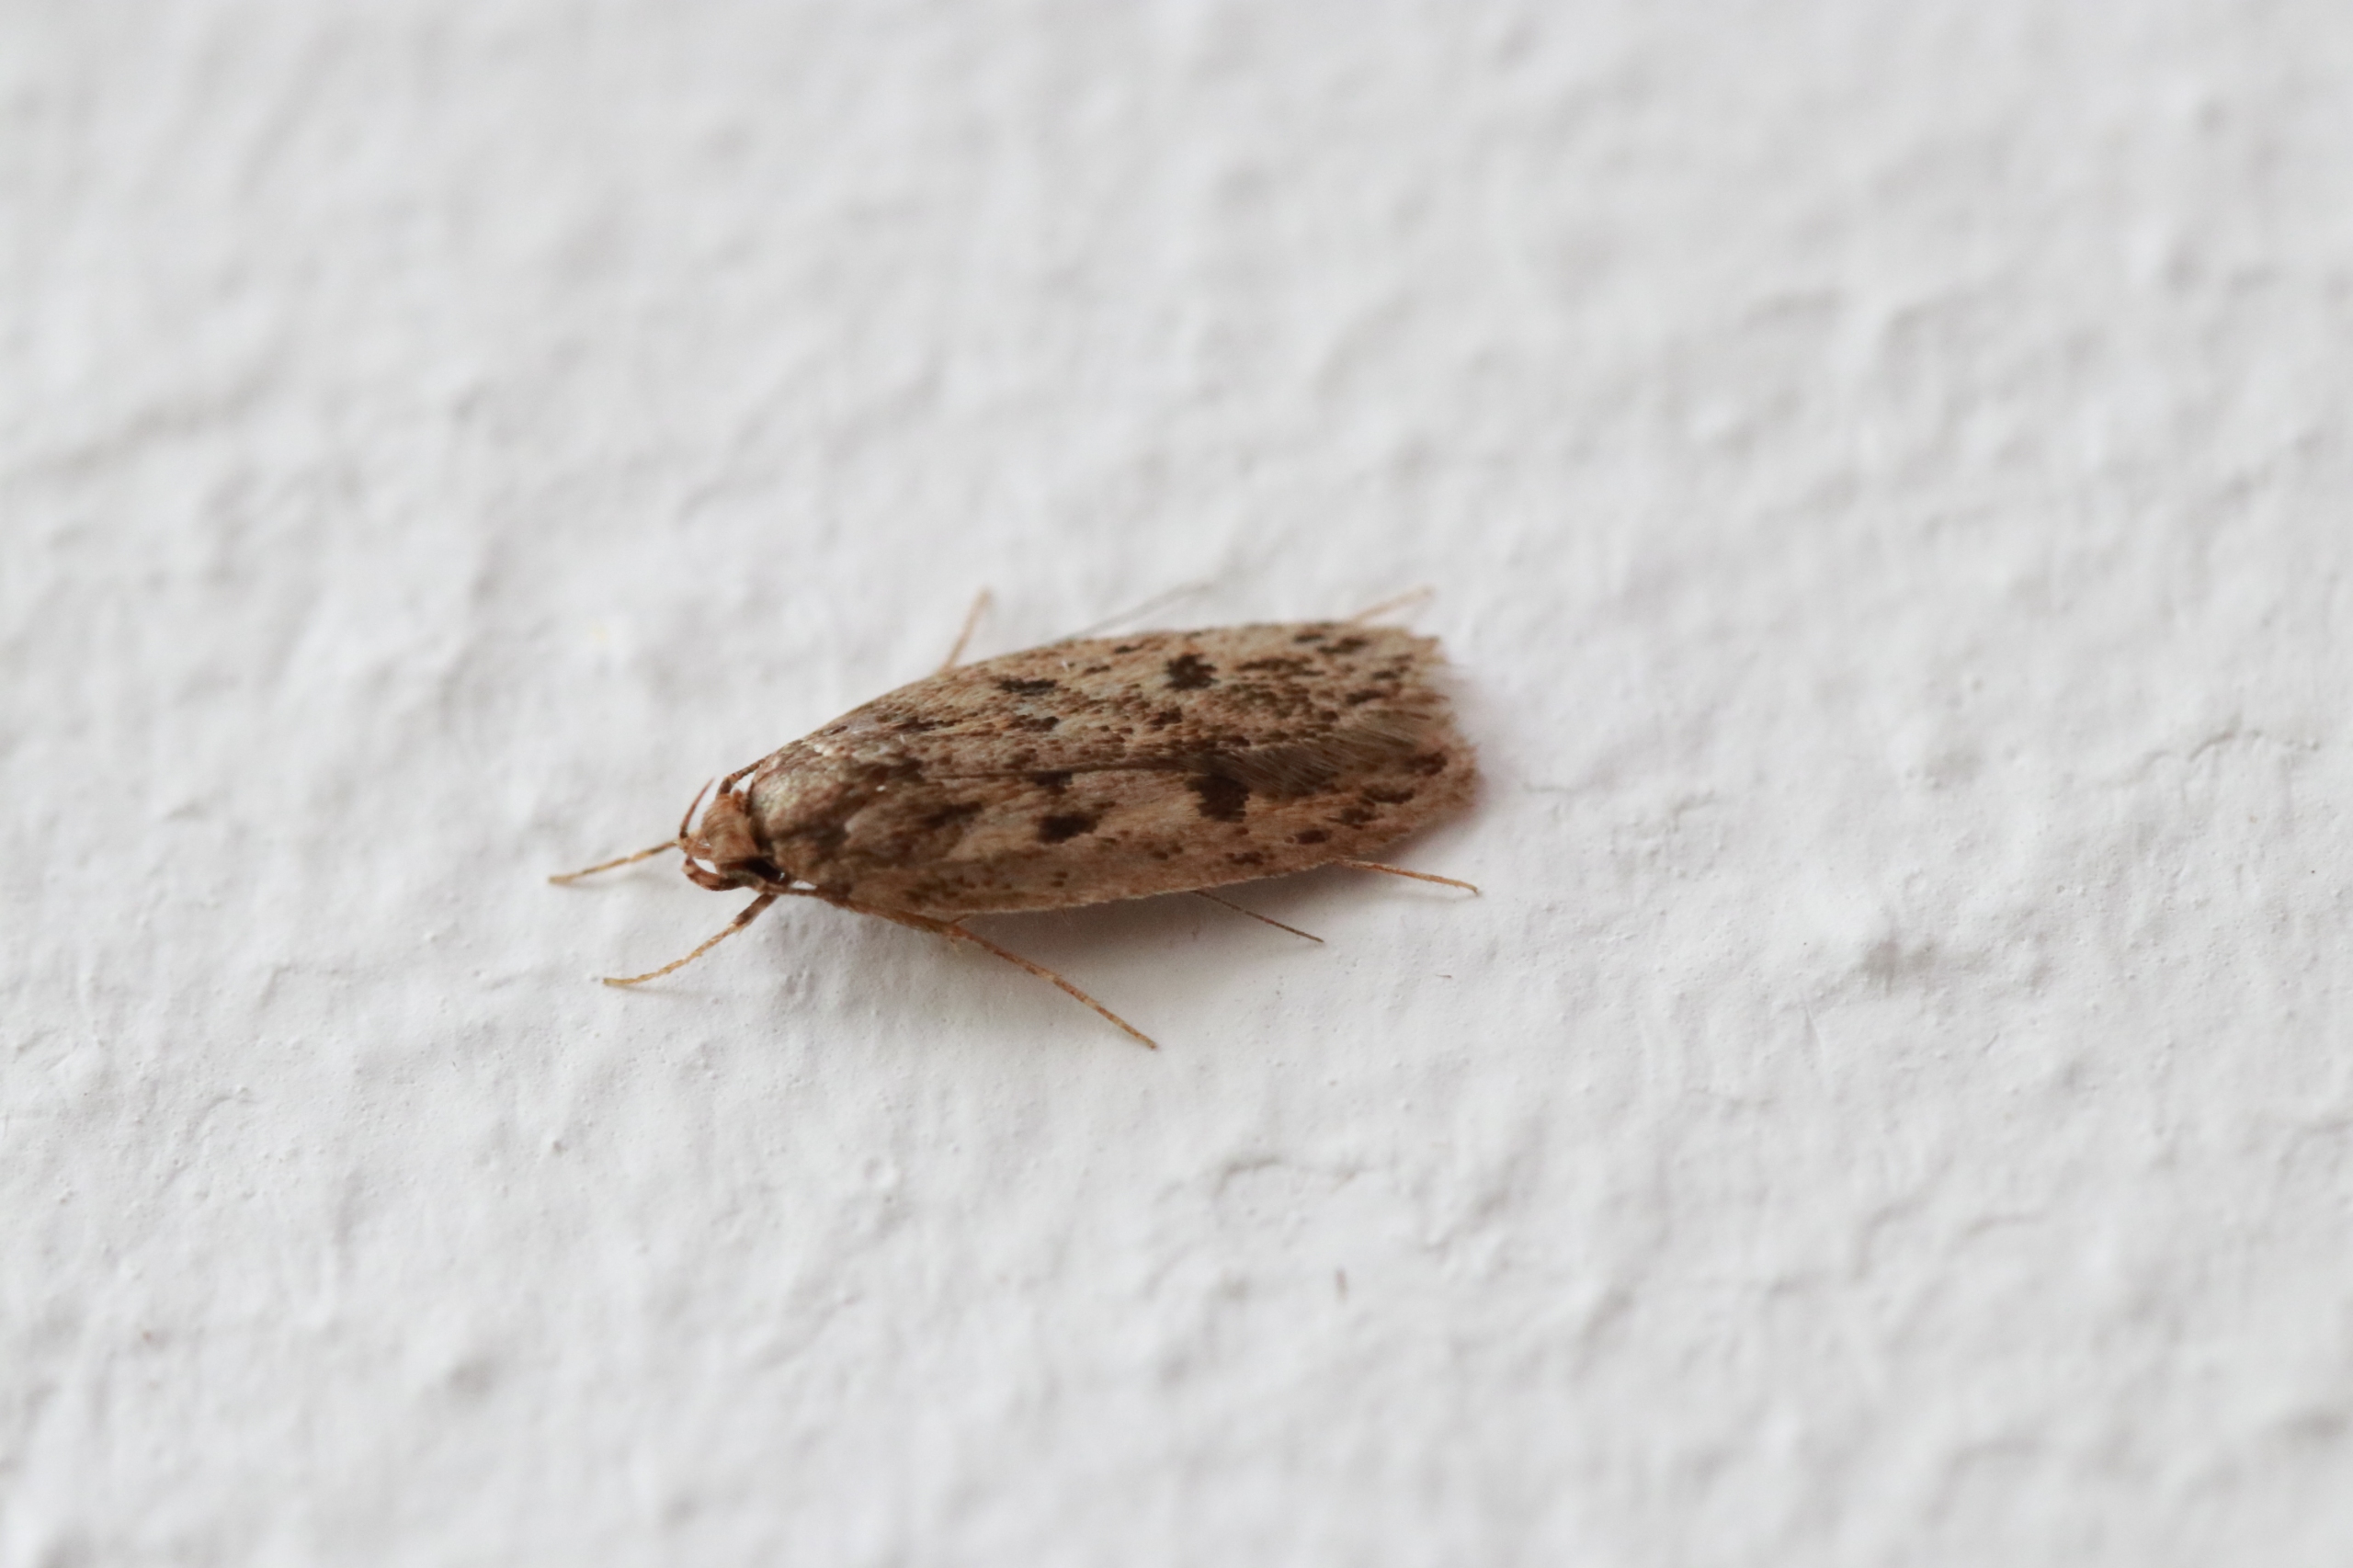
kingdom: Animalia
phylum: Arthropoda
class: Insecta
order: Lepidoptera
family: Oecophoridae
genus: Hofmannophila
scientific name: Hofmannophila pseudospretella
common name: Frømøl
